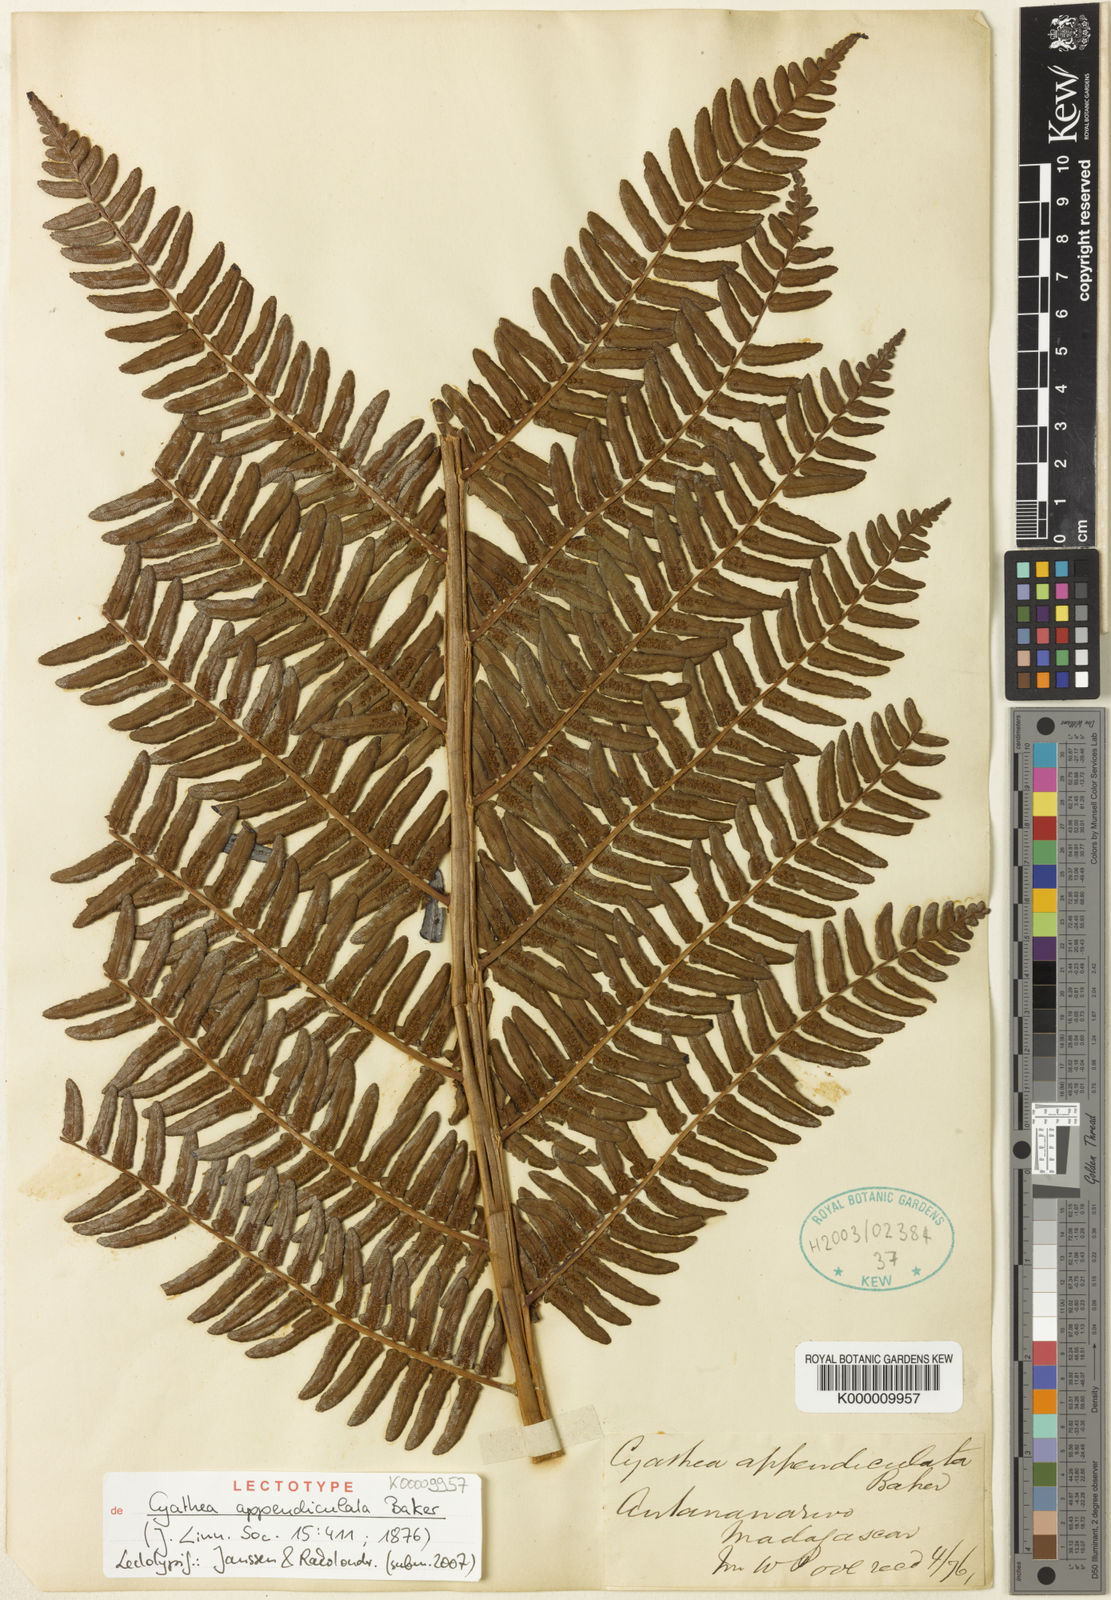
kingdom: Plantae
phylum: Tracheophyta
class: Polypodiopsida
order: Cyatheales
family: Cyatheaceae
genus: Alsophila
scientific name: Alsophila appendiculata
